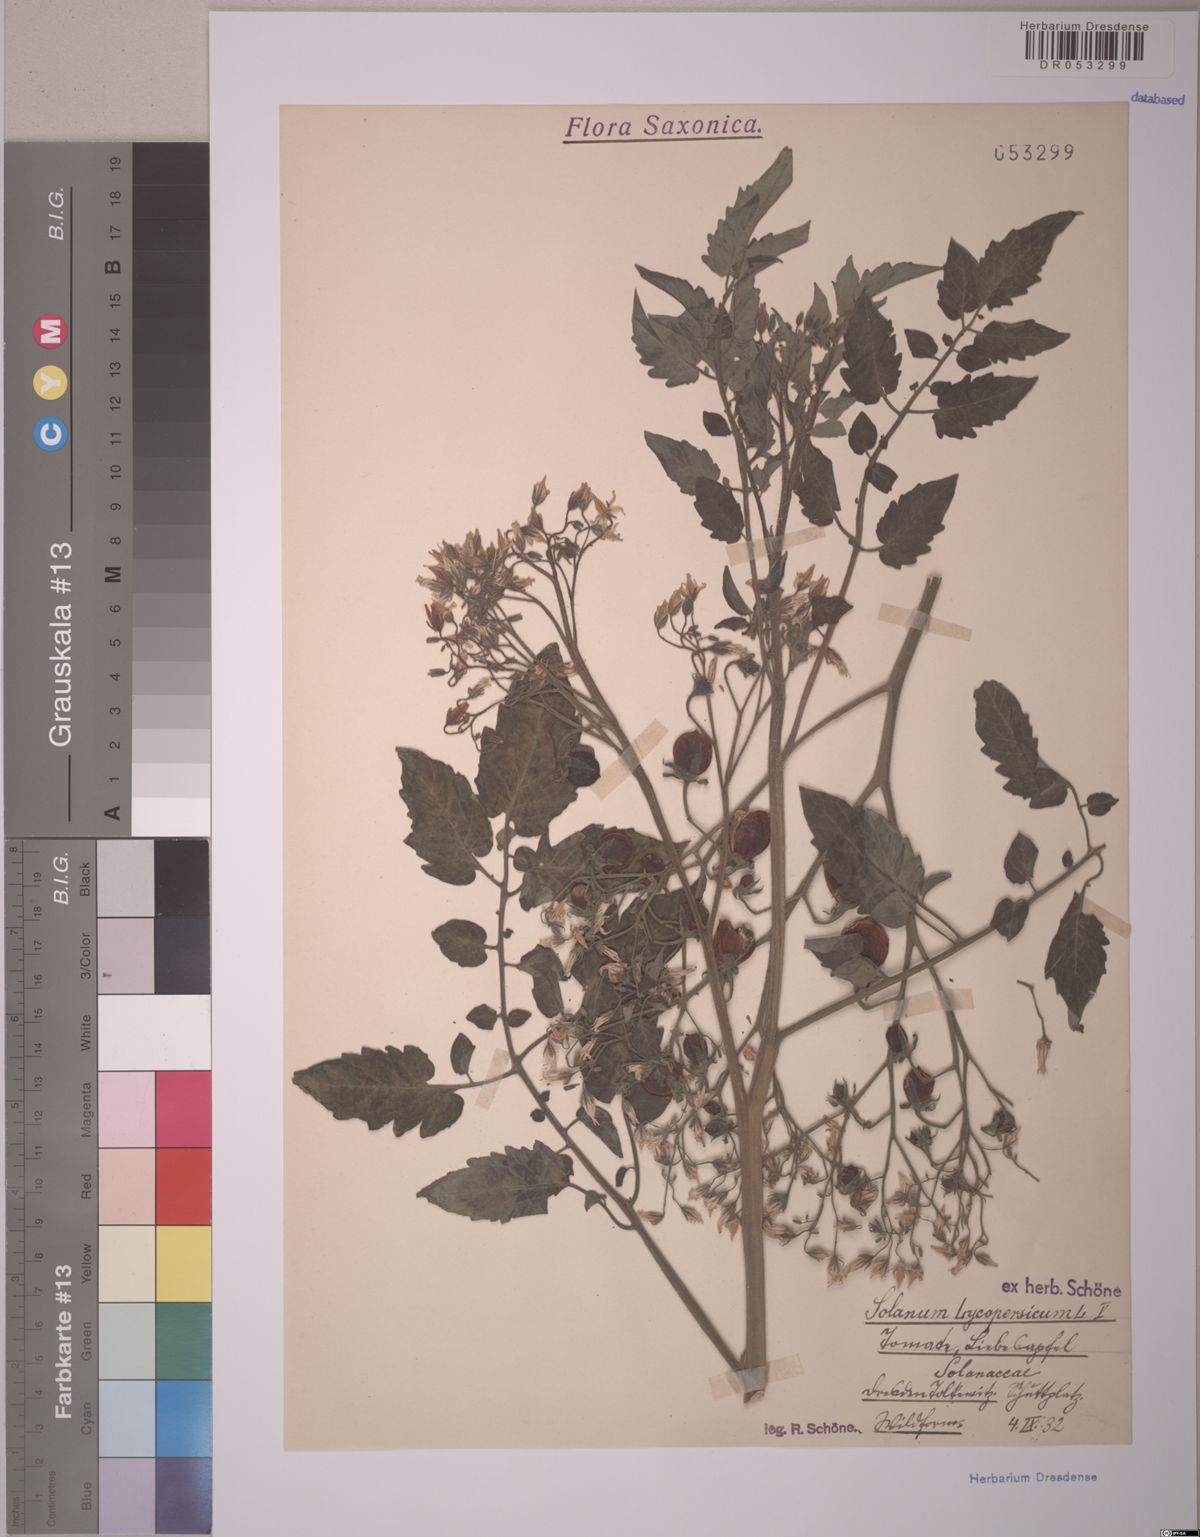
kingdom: Plantae
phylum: Tracheophyta
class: Magnoliopsida
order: Solanales
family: Solanaceae
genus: Solanum
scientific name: Solanum lycopersicum
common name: Garden tomato
